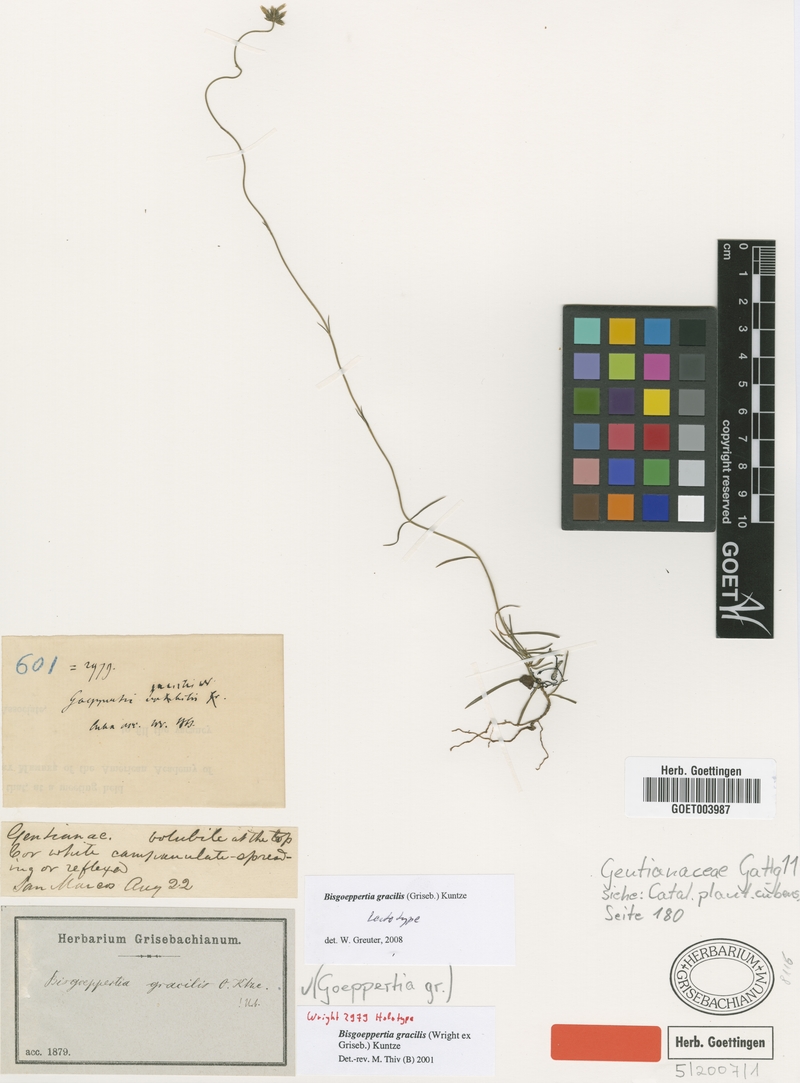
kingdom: Plantae
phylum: Tracheophyta
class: Magnoliopsida
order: Gentianales
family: Gentianaceae
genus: Bisgoeppertia
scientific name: Bisgoeppertia gracilis
